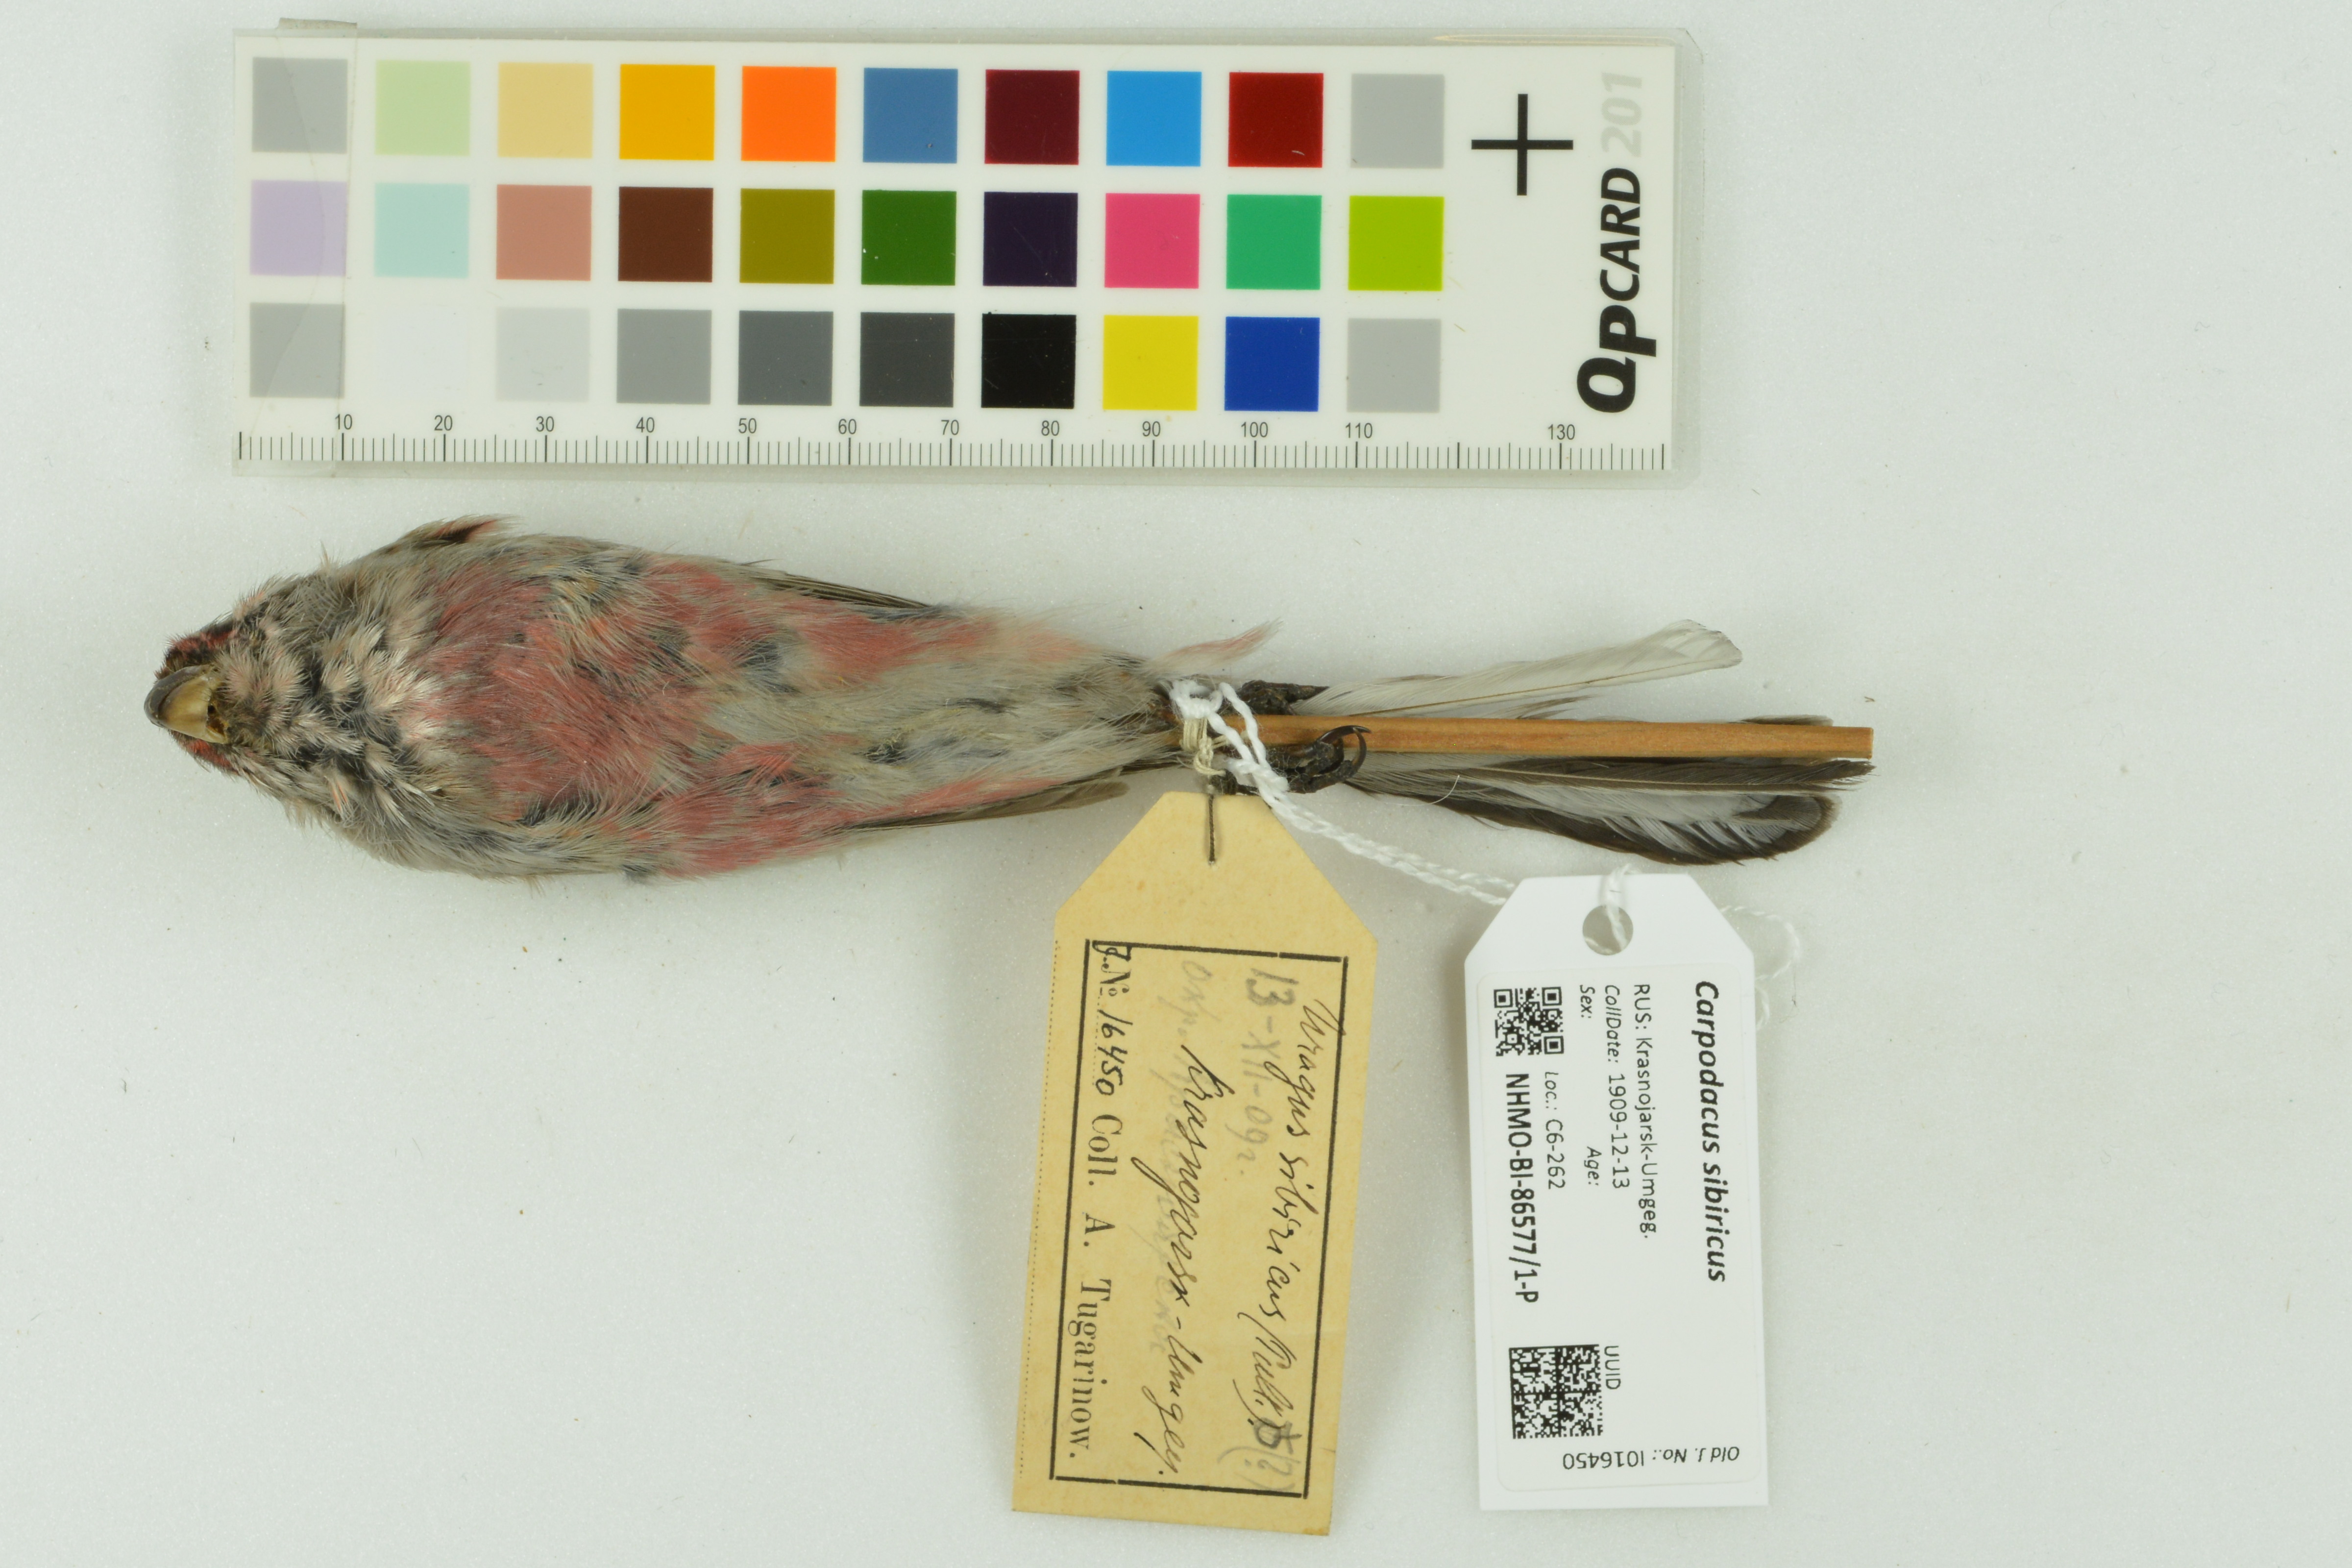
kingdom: Animalia
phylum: Chordata
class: Aves
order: Passeriformes
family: Fringillidae
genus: Carpodacus
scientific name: Carpodacus sibiricus
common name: Long-tailed rosefinch
